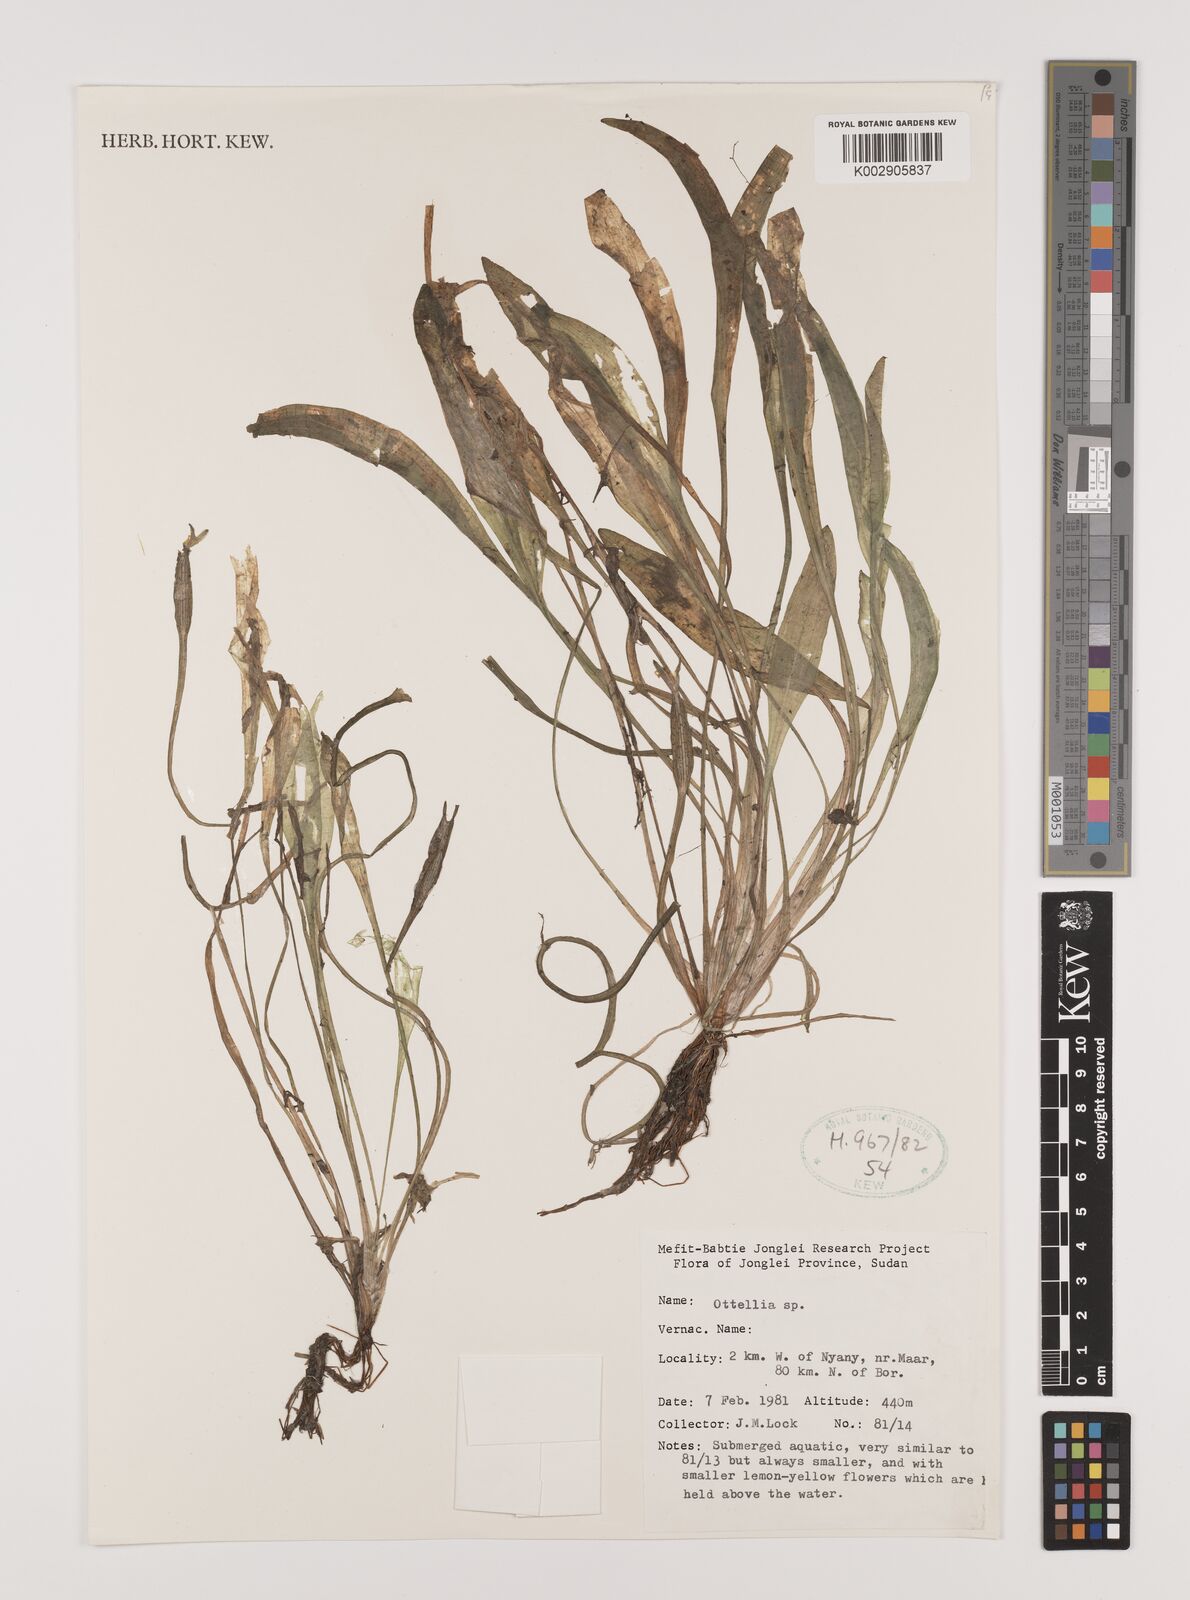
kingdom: Plantae
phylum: Tracheophyta
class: Liliopsida
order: Alismatales
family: Hydrocharitaceae
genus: Ottelia
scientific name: Ottelia ulvifolia
